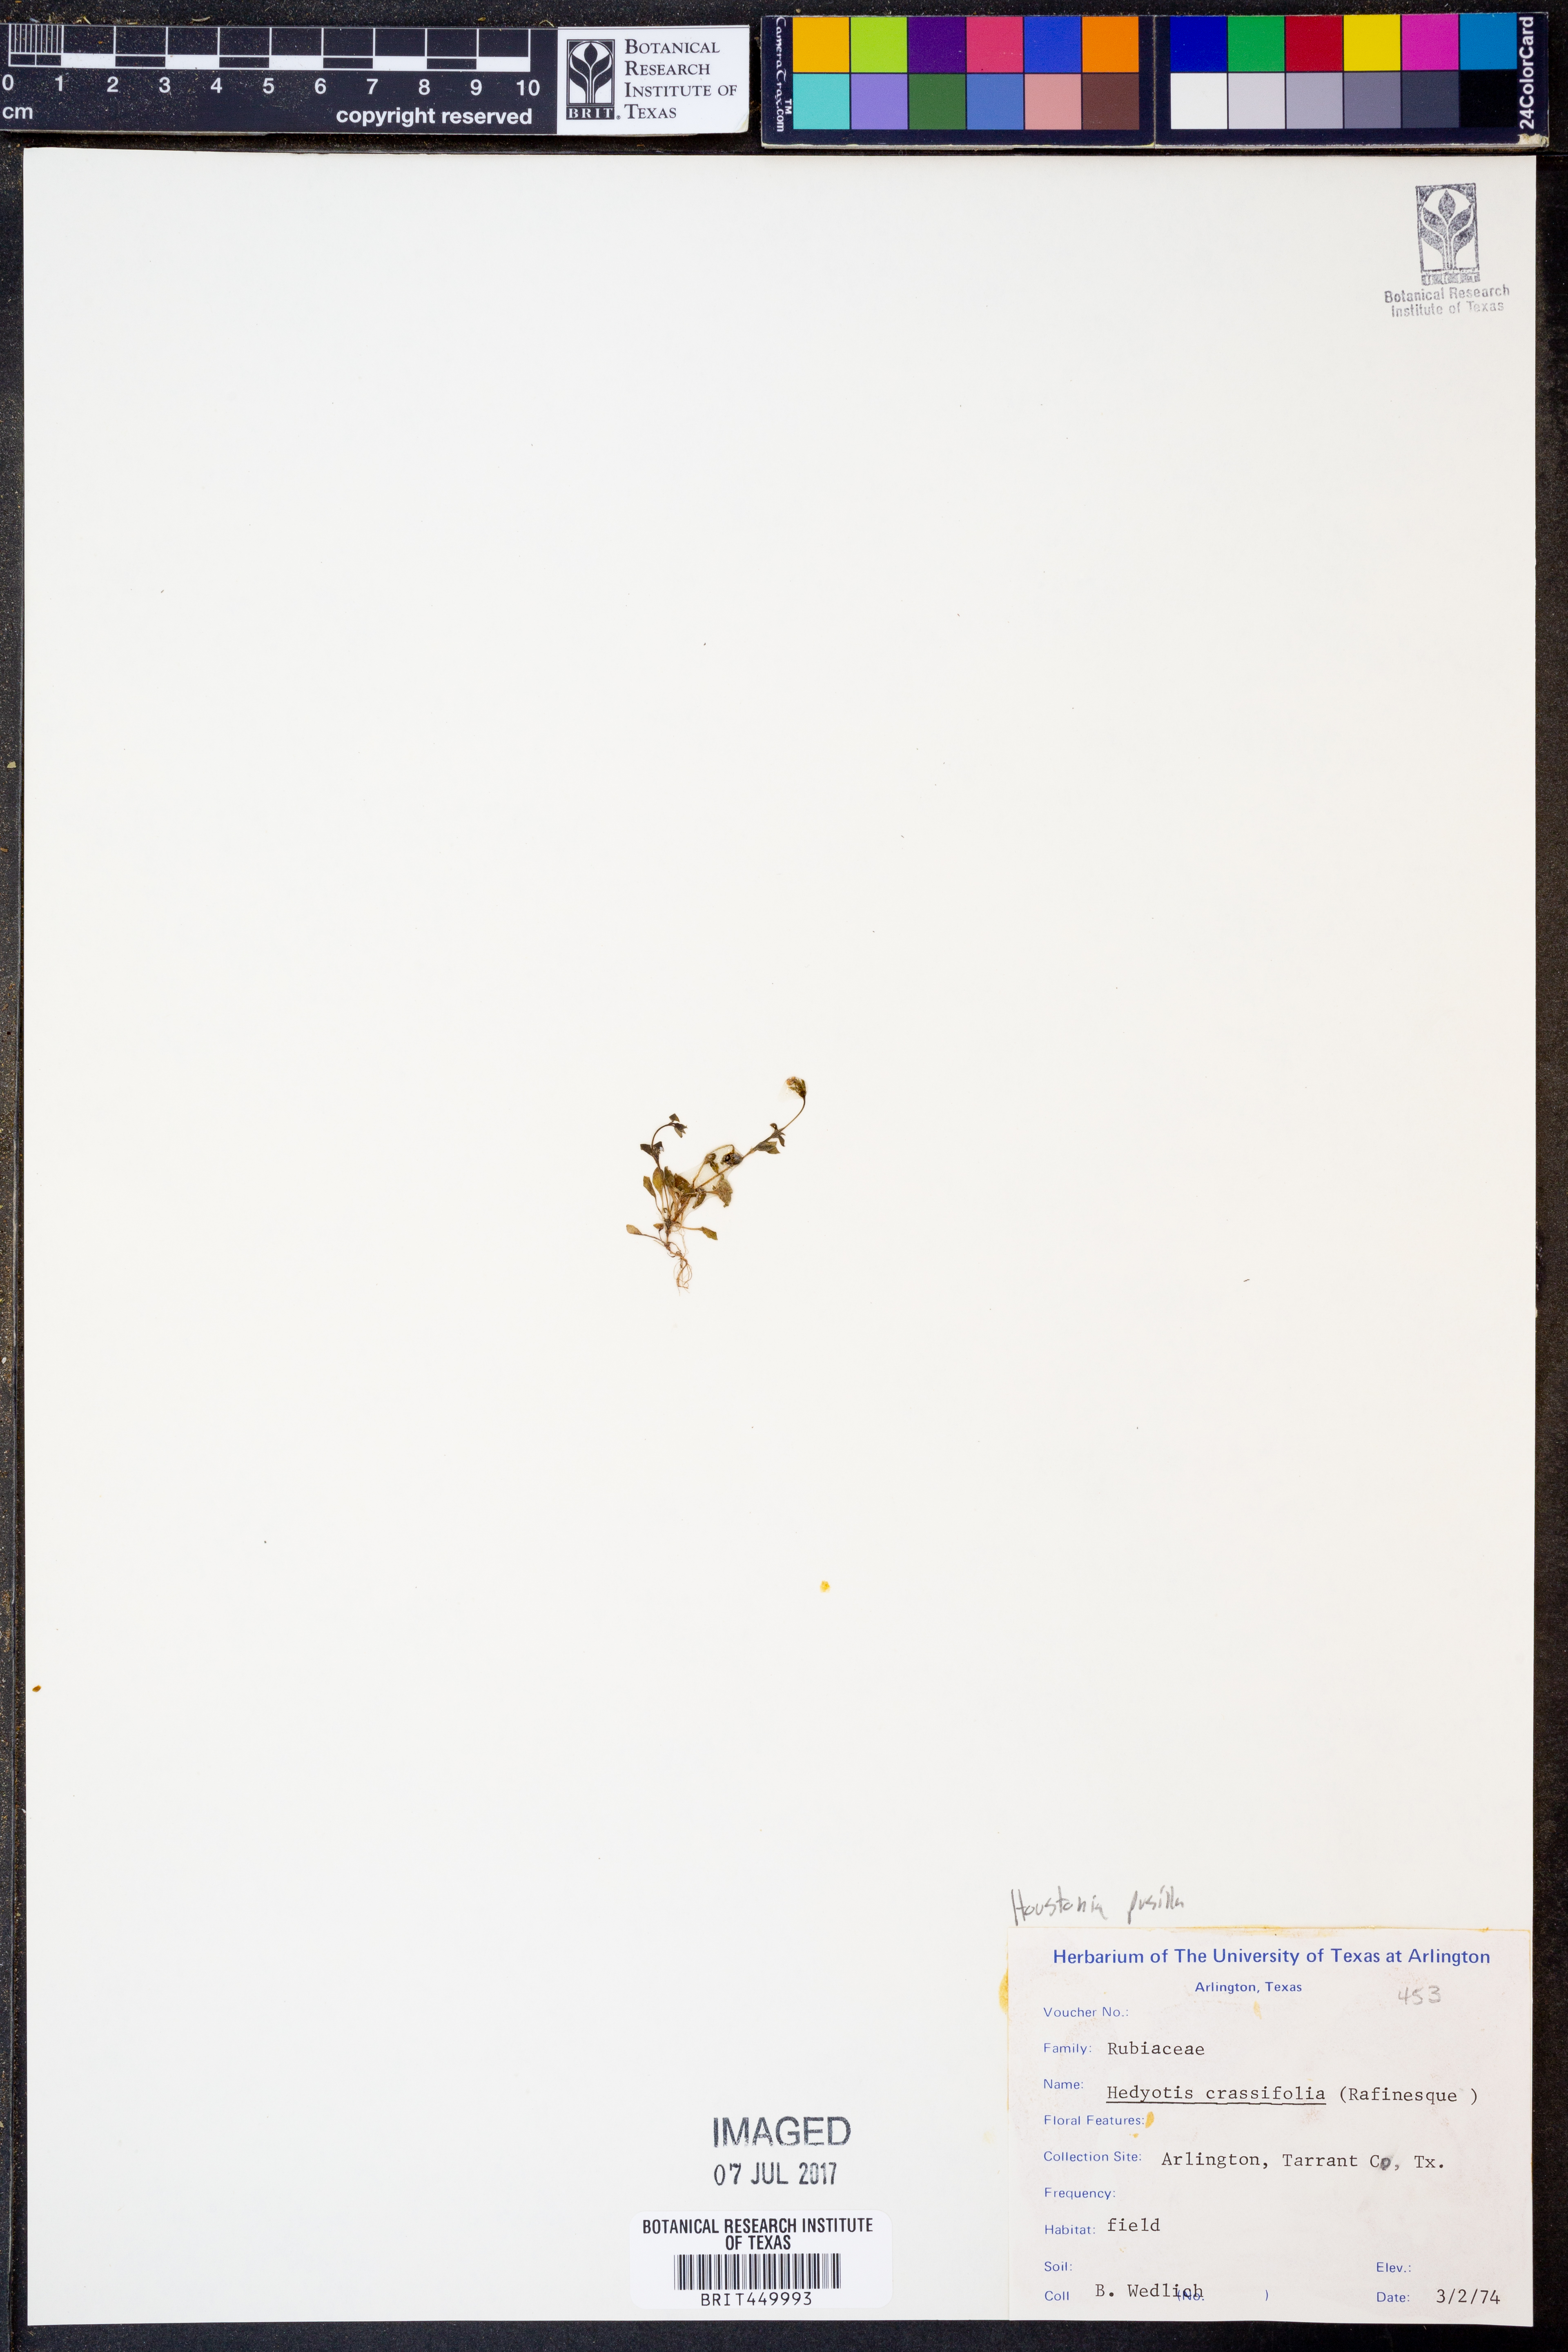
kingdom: Plantae
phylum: Tracheophyta
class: Magnoliopsida
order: Gentianales
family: Rubiaceae
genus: Houstonia
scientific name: Houstonia pusilla
